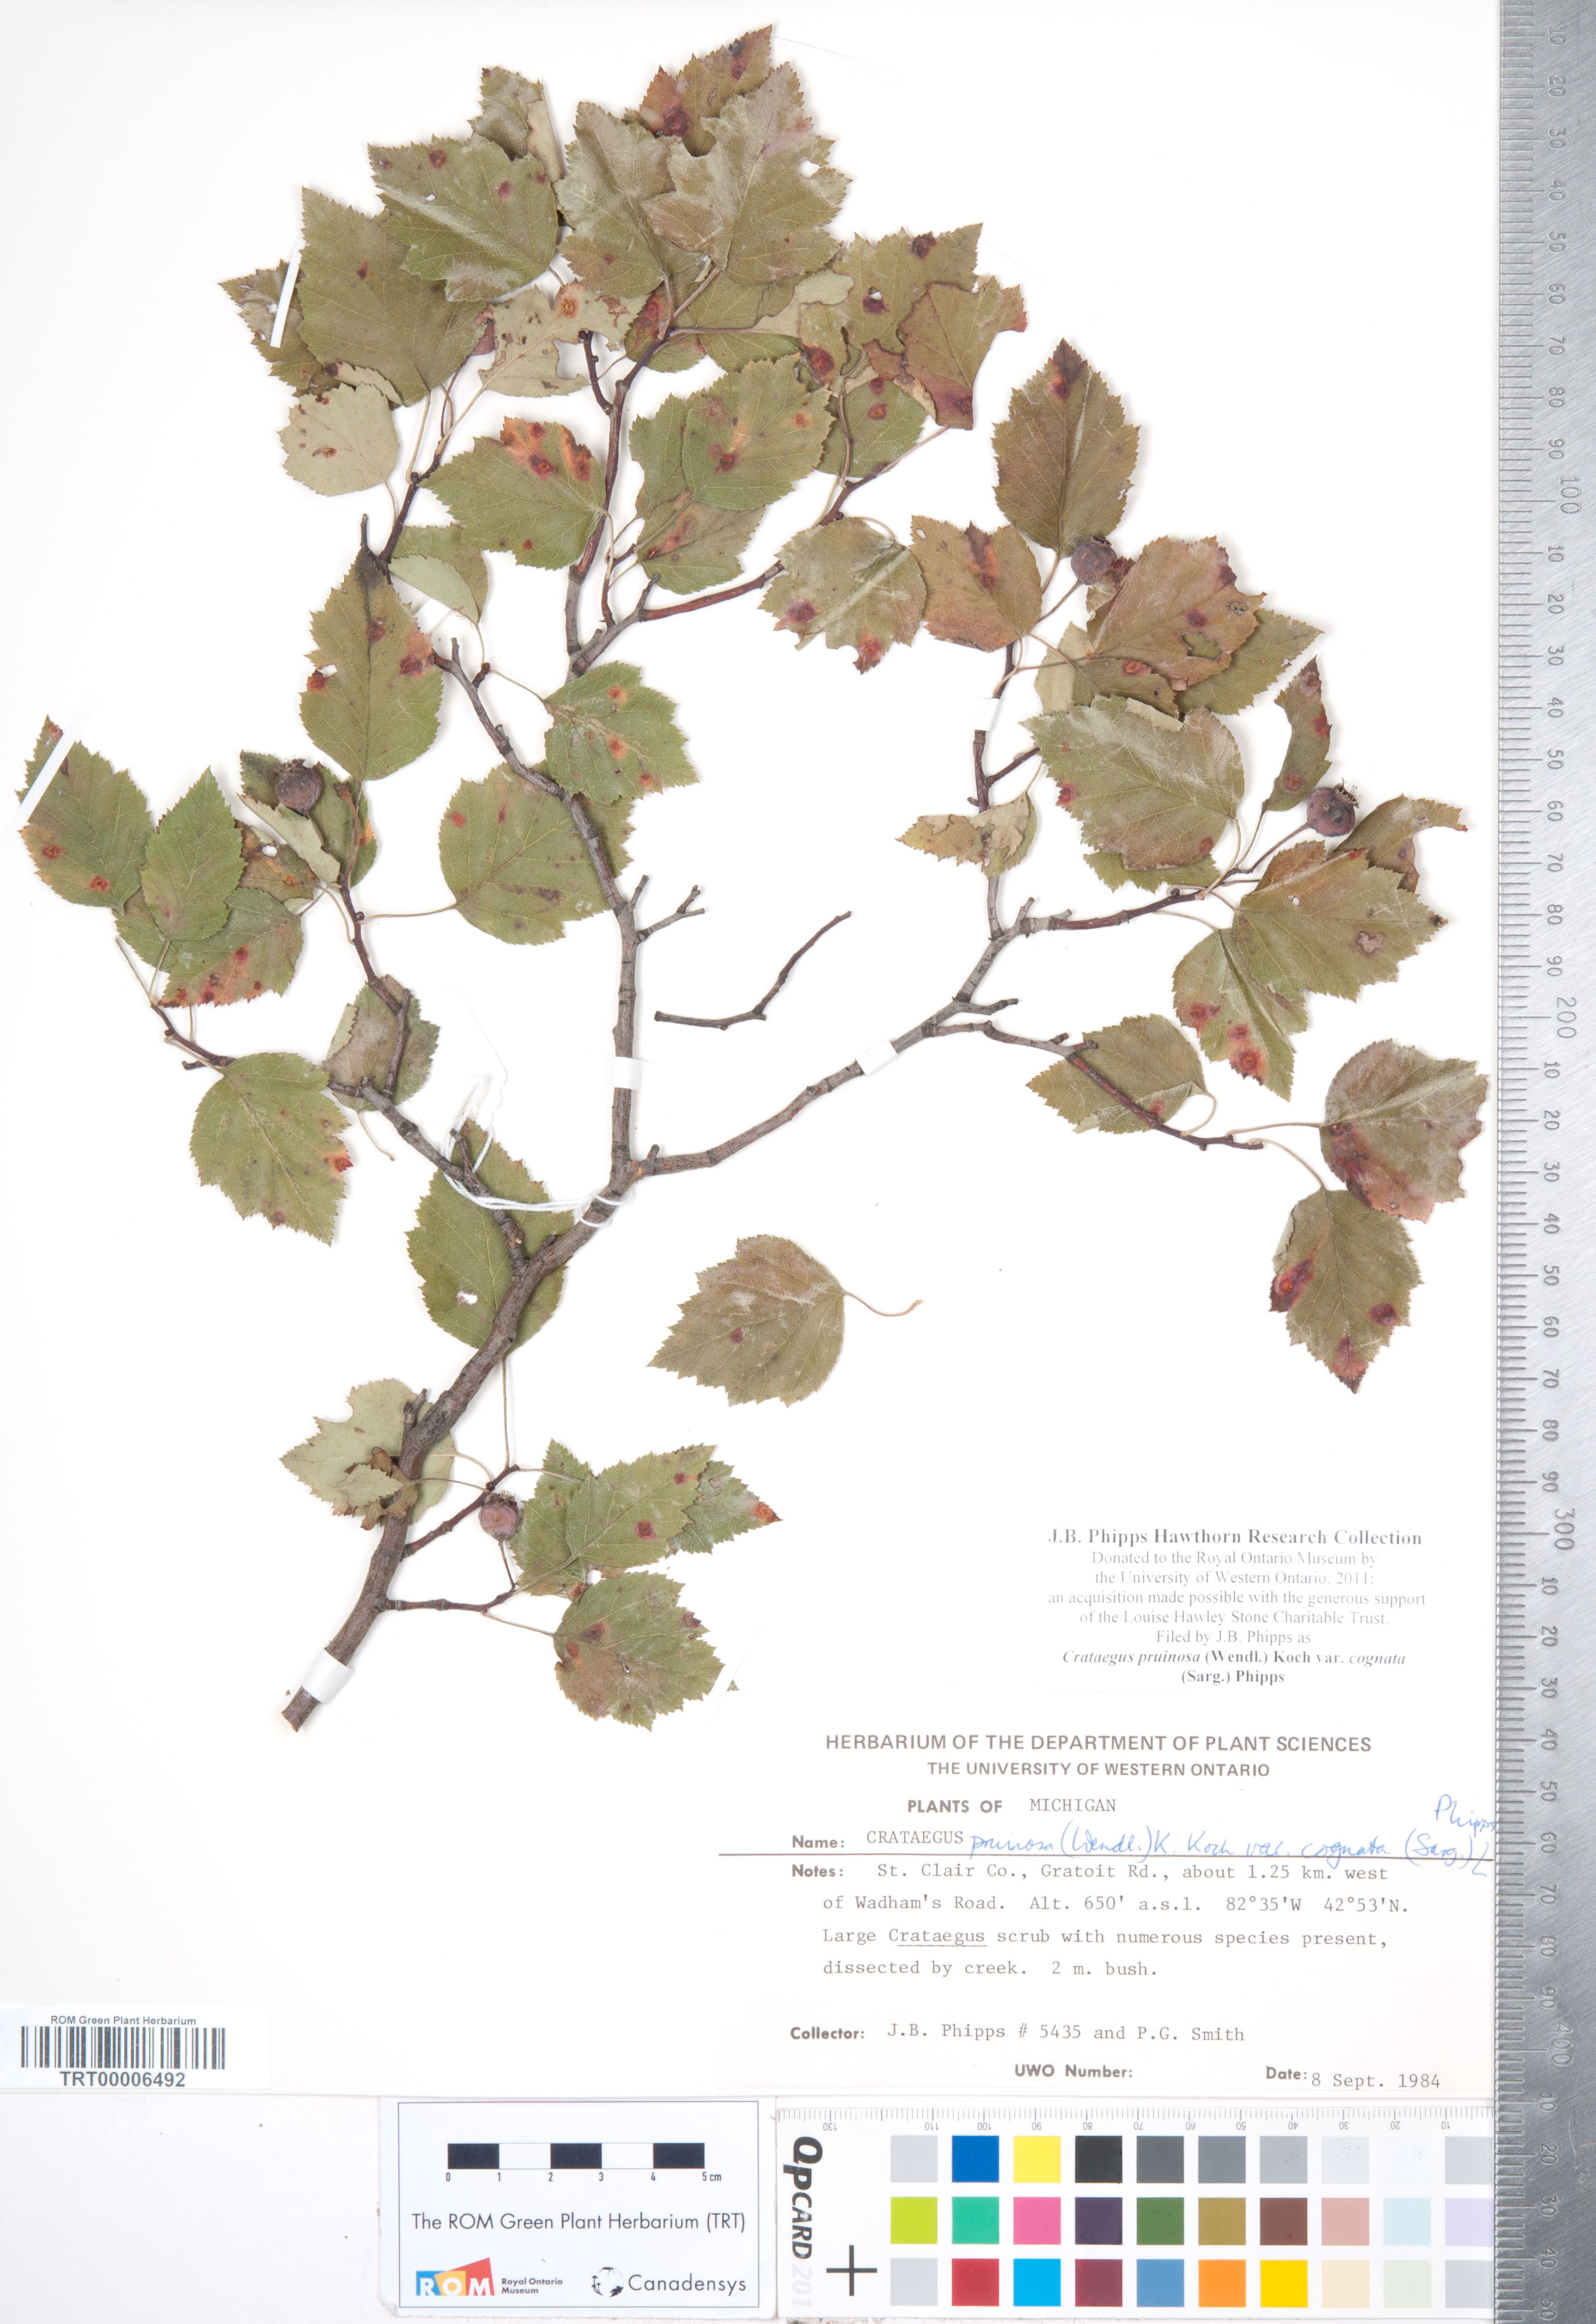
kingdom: Plantae
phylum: Tracheophyta
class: Magnoliopsida
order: Rosales
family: Rosaceae
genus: Crataegus
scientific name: Crataegus
